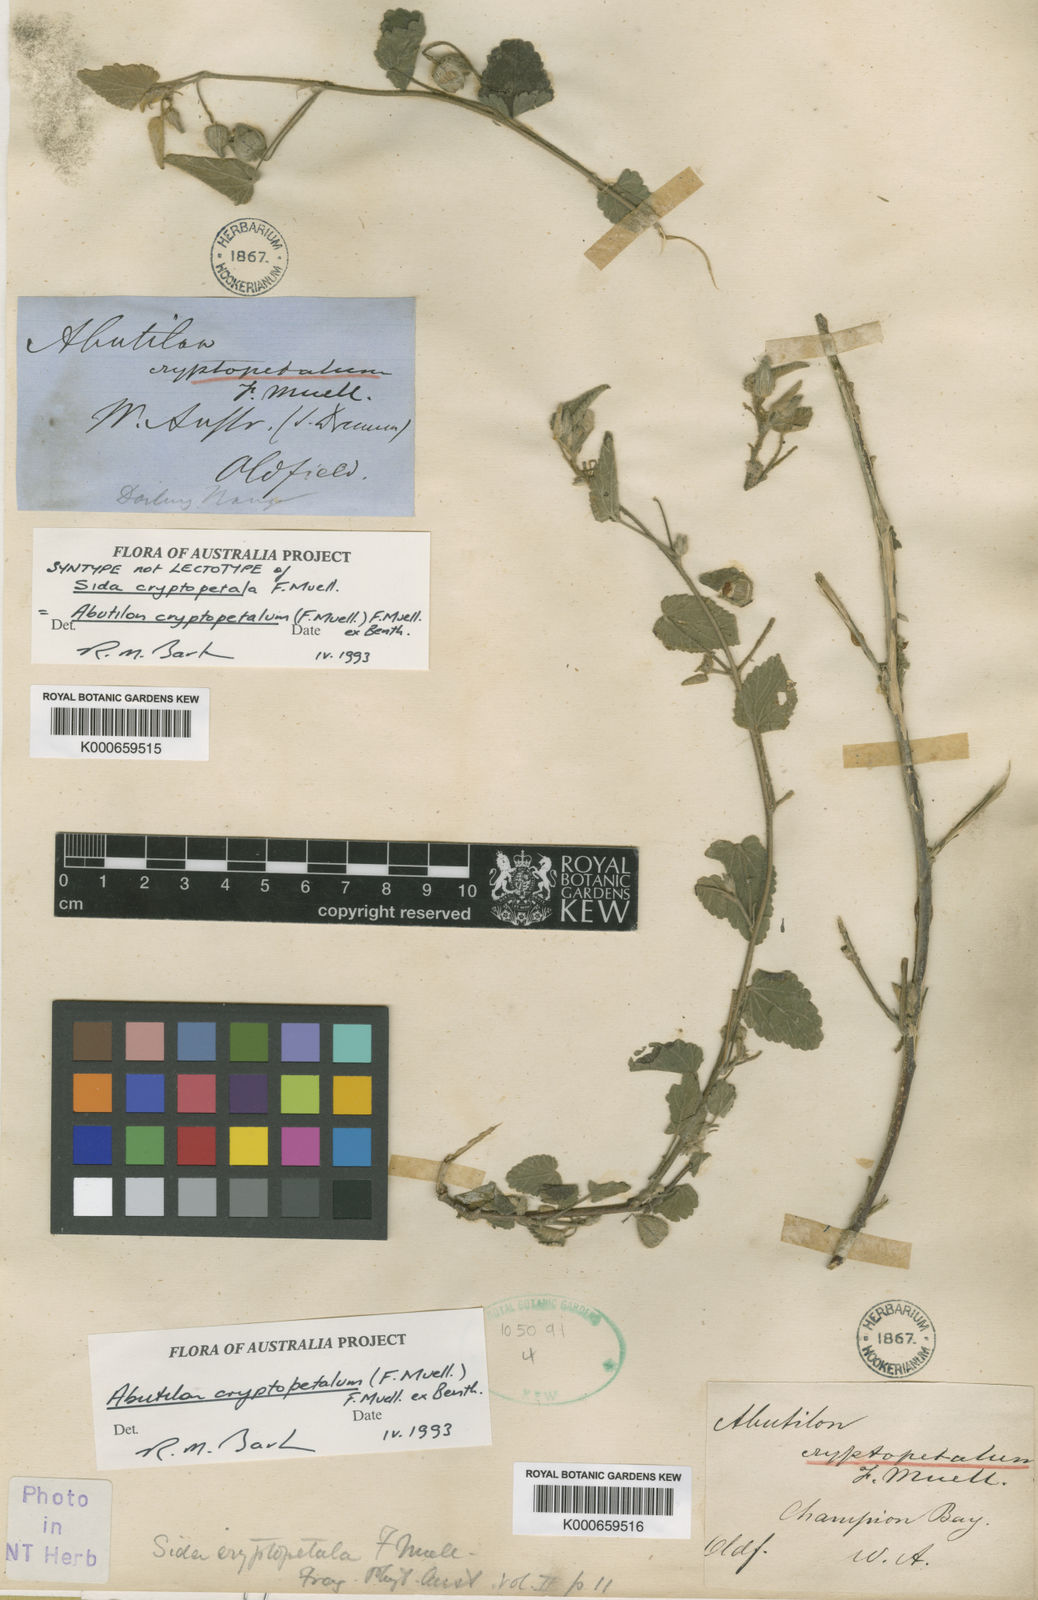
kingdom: Plantae
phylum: Tracheophyta
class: Magnoliopsida
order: Malvales
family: Malvaceae
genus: Abutilon
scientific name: Abutilon cryptopetalum
